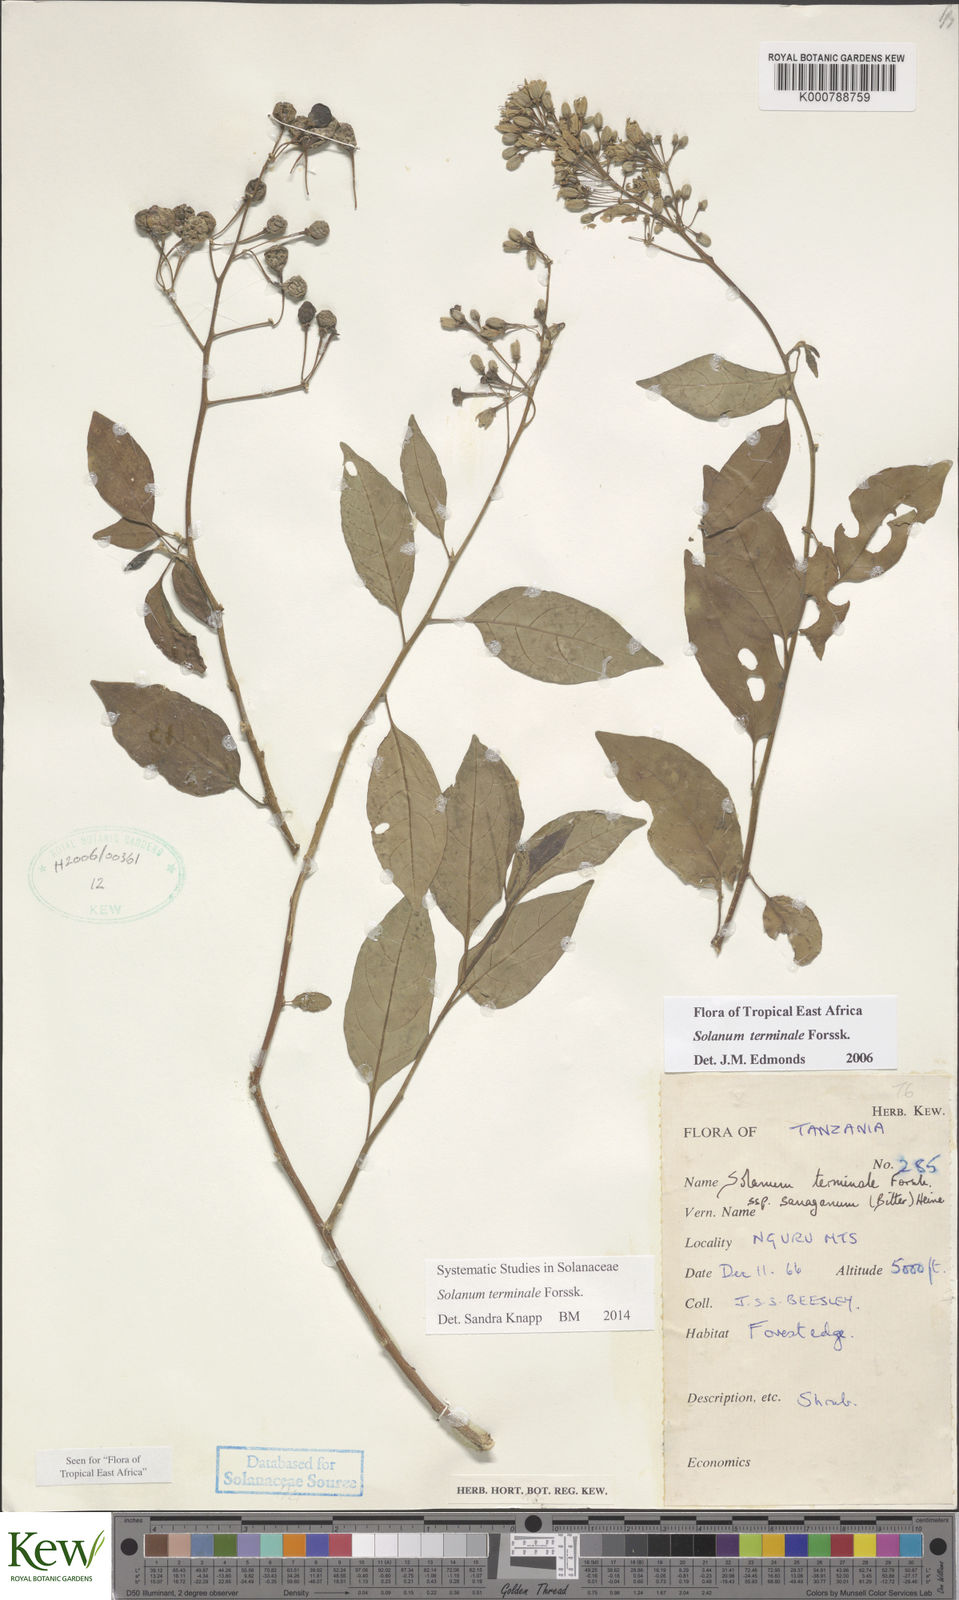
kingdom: Plantae
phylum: Tracheophyta
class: Magnoliopsida
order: Solanales
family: Solanaceae
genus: Solanum
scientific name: Solanum terminale
